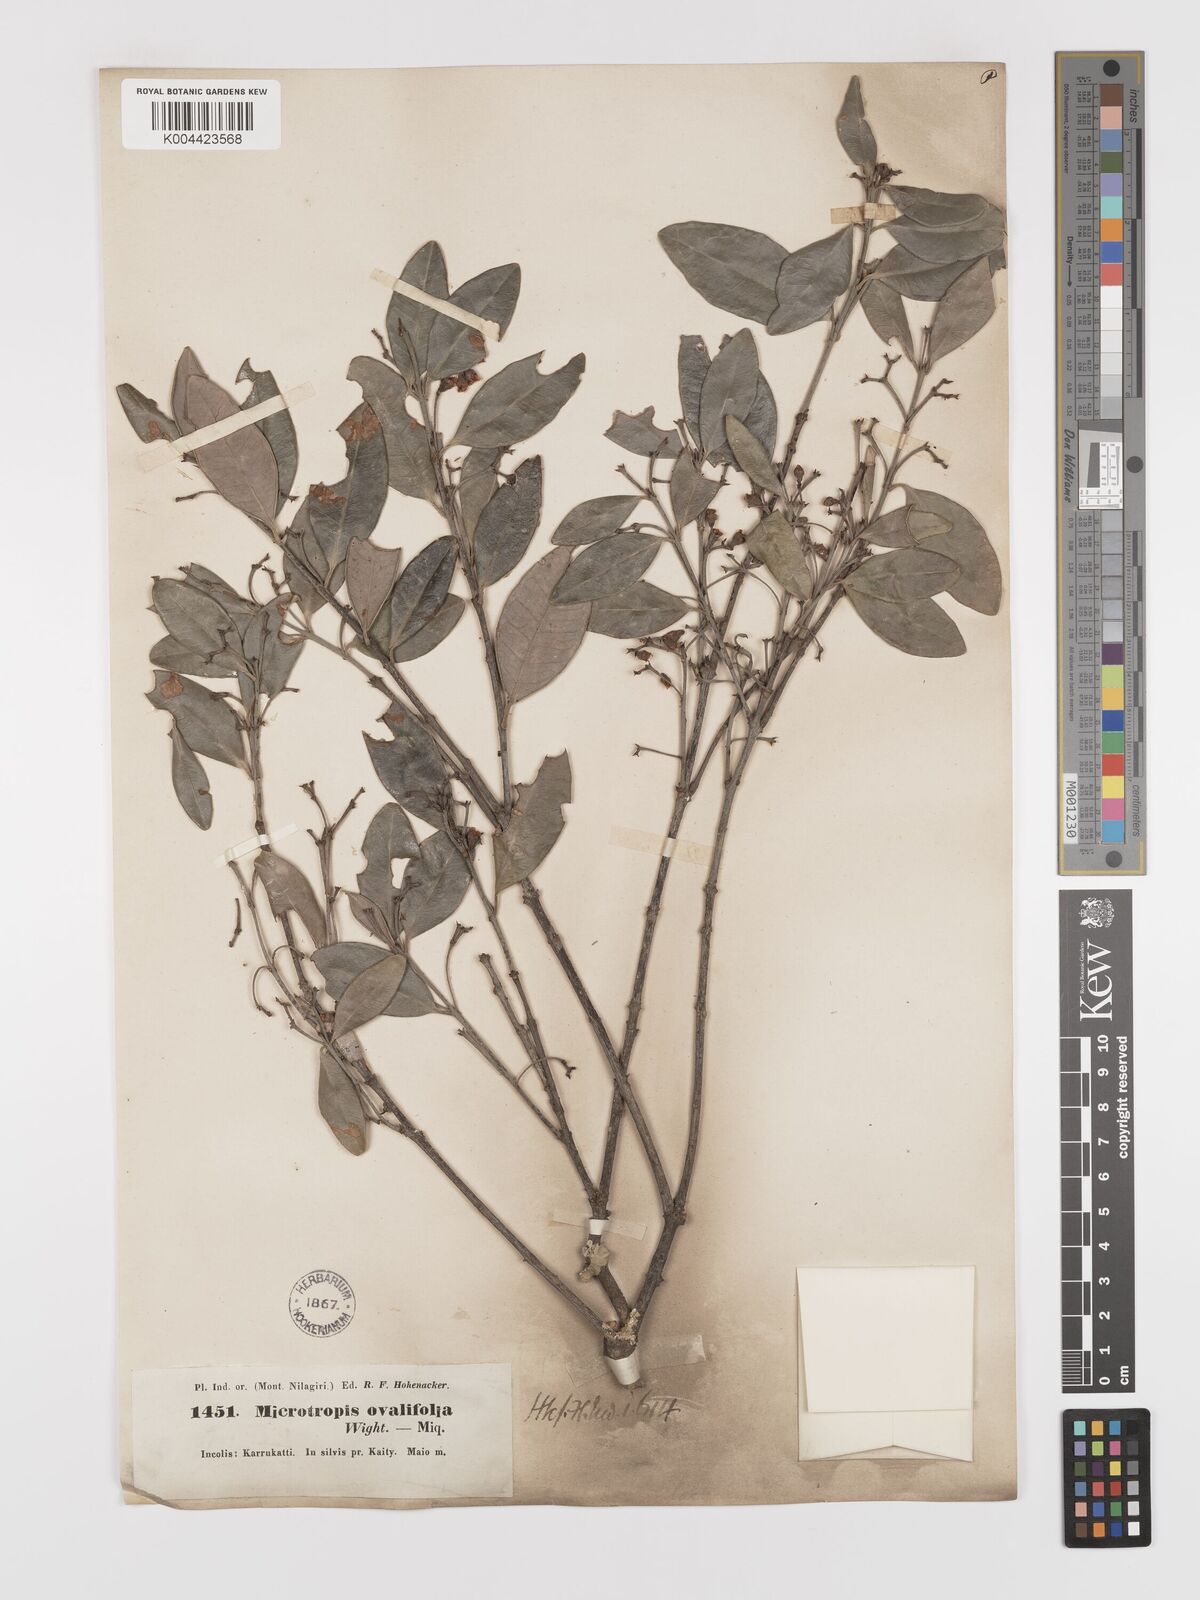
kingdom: Plantae
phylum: Tracheophyta
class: Magnoliopsida
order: Celastrales
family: Celastraceae
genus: Microtropis
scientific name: Microtropis microcarpa
